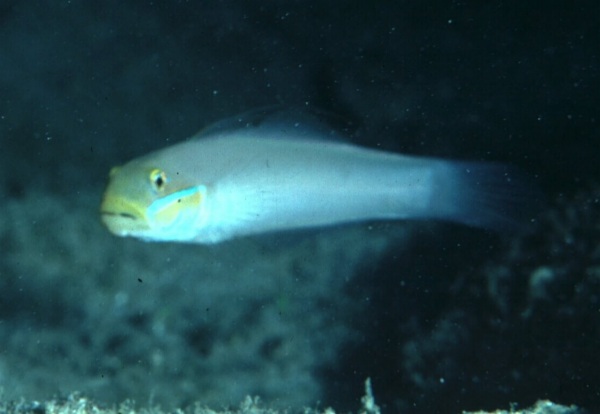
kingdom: Animalia
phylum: Chordata
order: Perciformes
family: Gobiidae
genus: Valenciennea
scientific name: Valenciennea strigata
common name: Blueband goby
